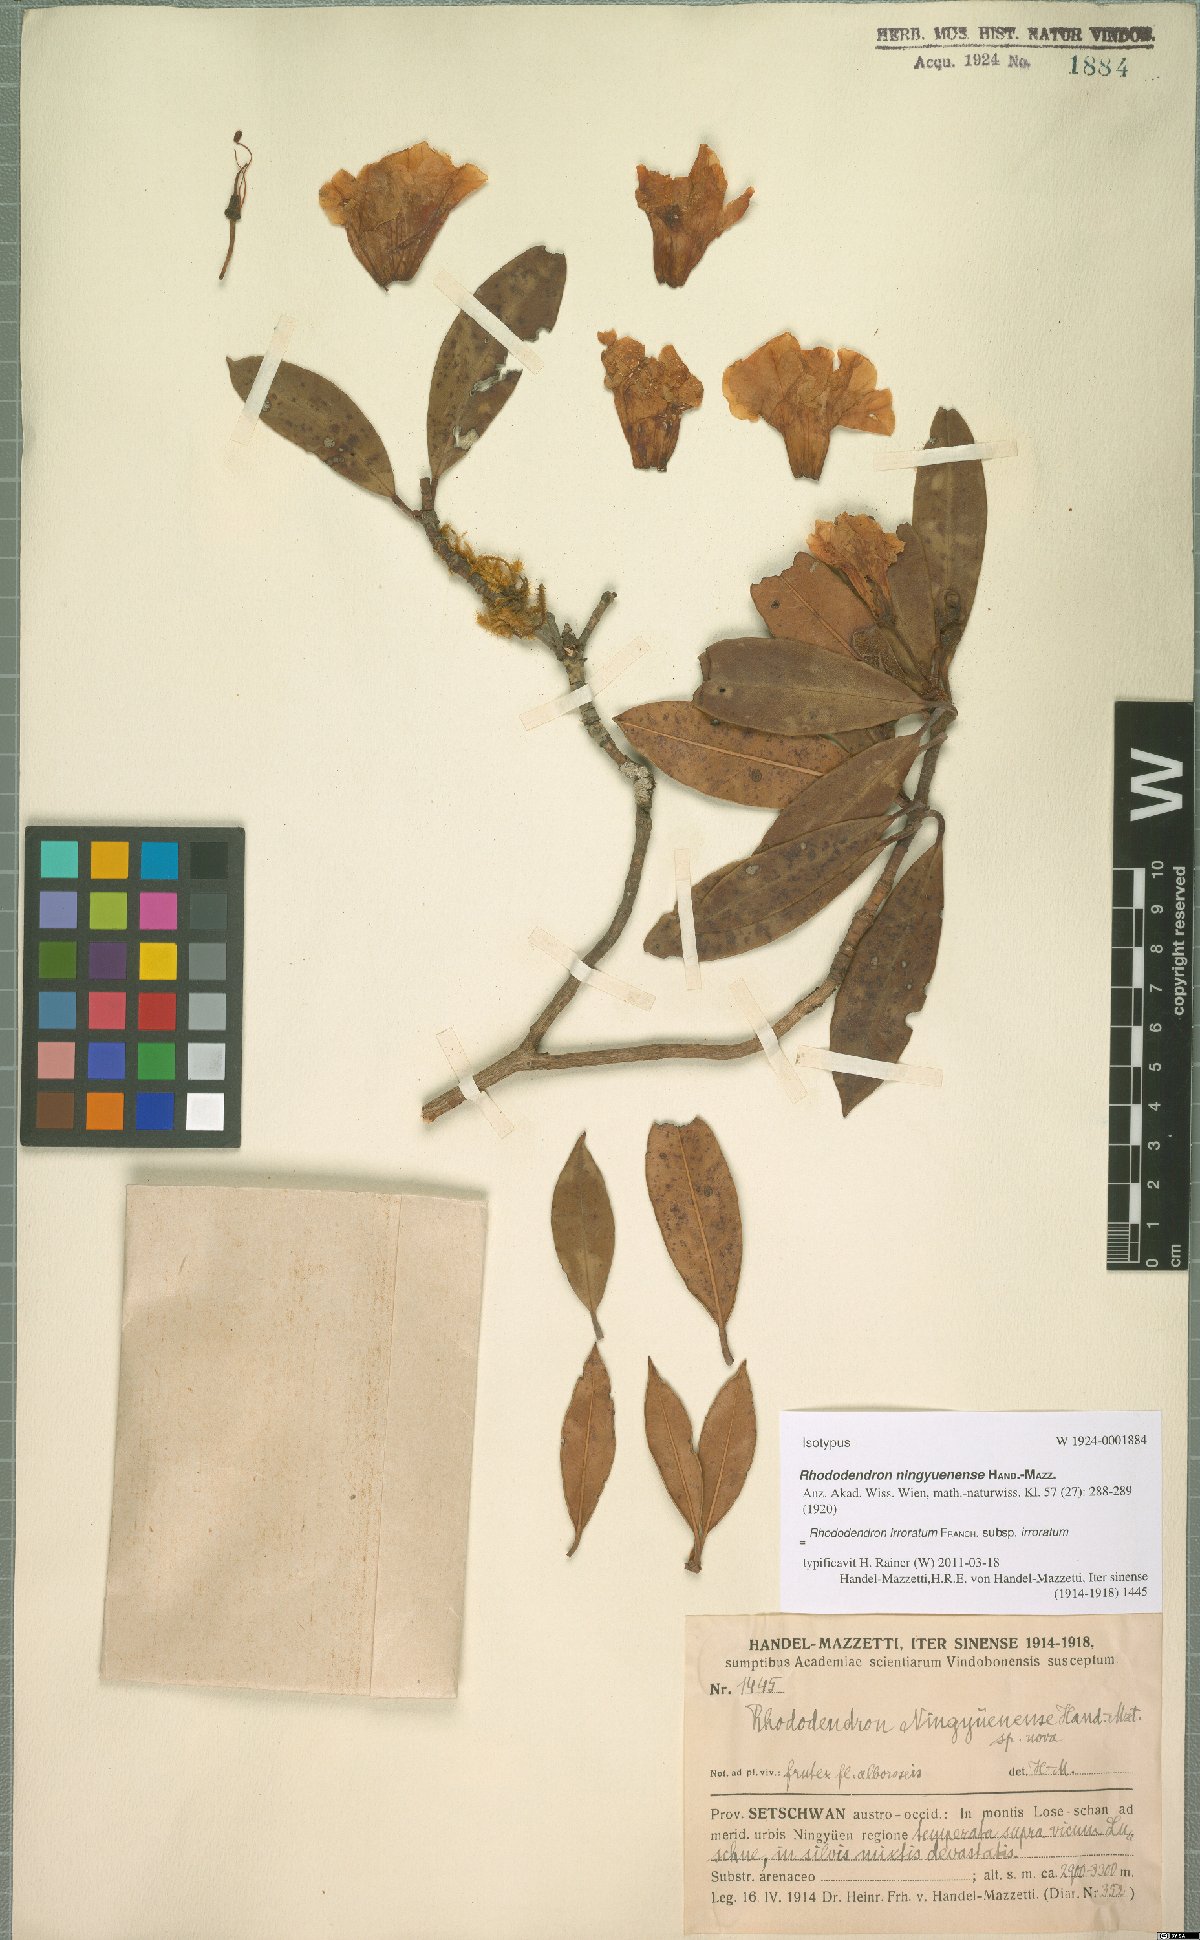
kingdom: Plantae
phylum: Tracheophyta
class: Magnoliopsida
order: Ericales
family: Ericaceae
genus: Rhododendron
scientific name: Rhododendron irroratum
